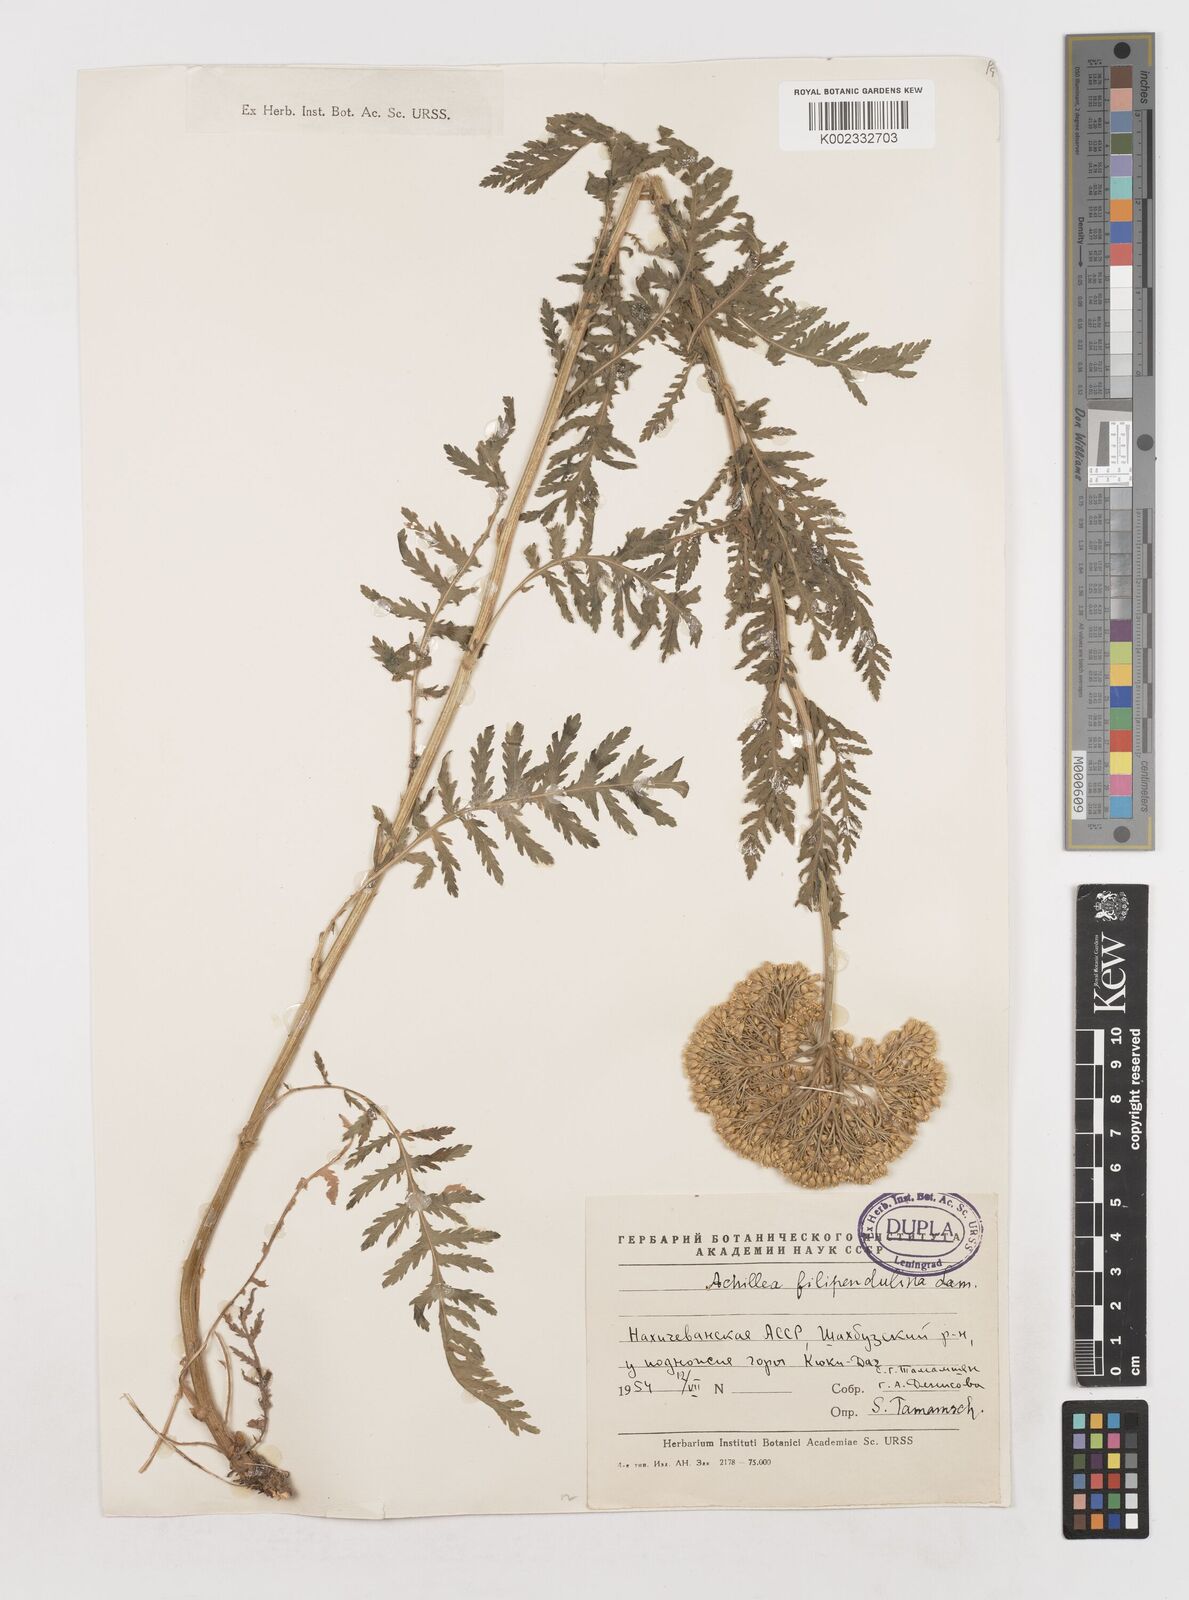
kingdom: Plantae
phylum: Tracheophyta
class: Magnoliopsida
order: Asterales
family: Asteraceae
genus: Achillea
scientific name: Achillea filipendulina
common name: Fernleaf yarrow
